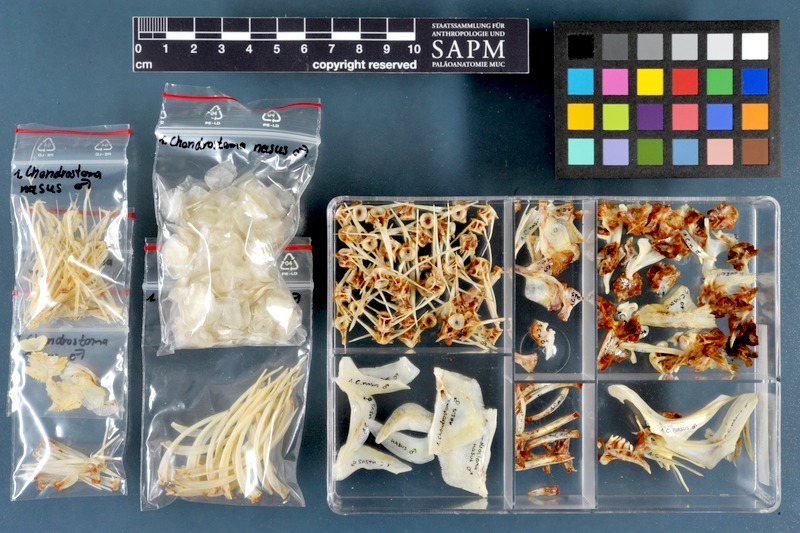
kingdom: Animalia
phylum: Chordata
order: Cypriniformes
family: Cyprinidae
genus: Chondrostoma
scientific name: Chondrostoma nasus
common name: Nase
